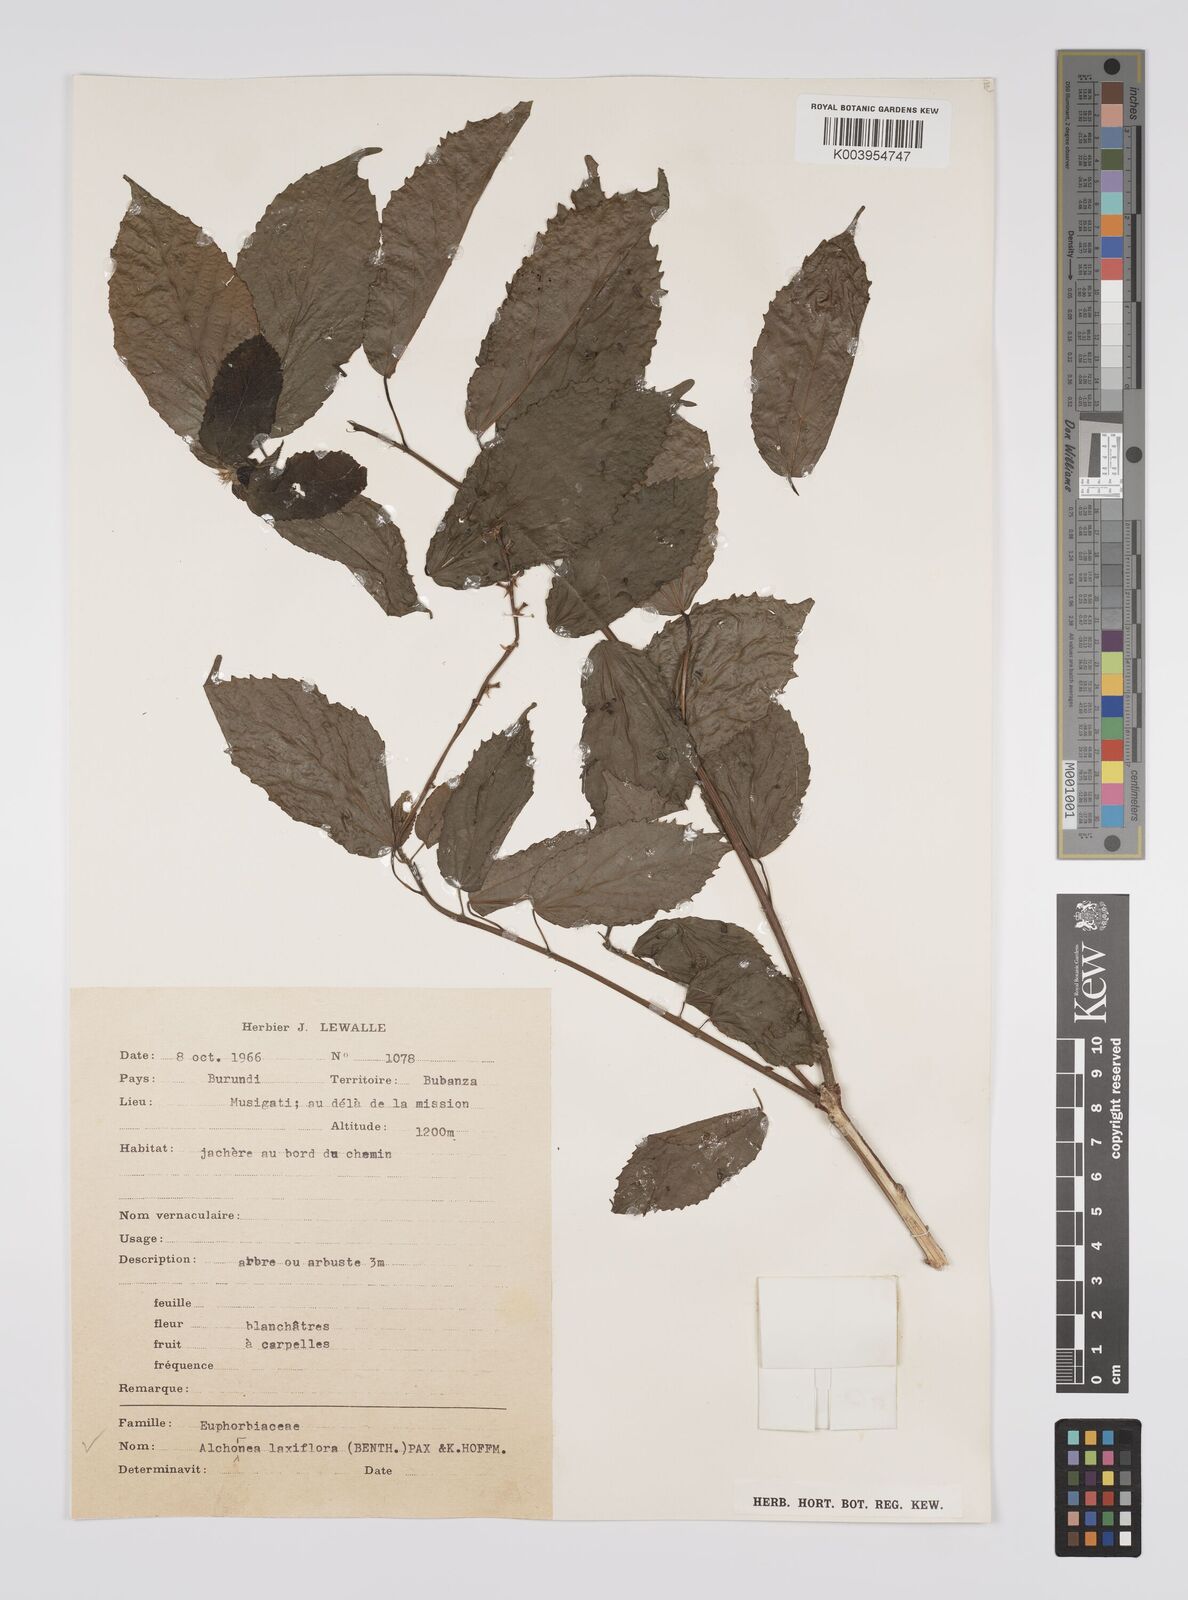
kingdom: Plantae
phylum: Tracheophyta
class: Magnoliopsida
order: Malpighiales
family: Euphorbiaceae
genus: Alchornea
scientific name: Alchornea laxiflora
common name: Lowveld bead-string
